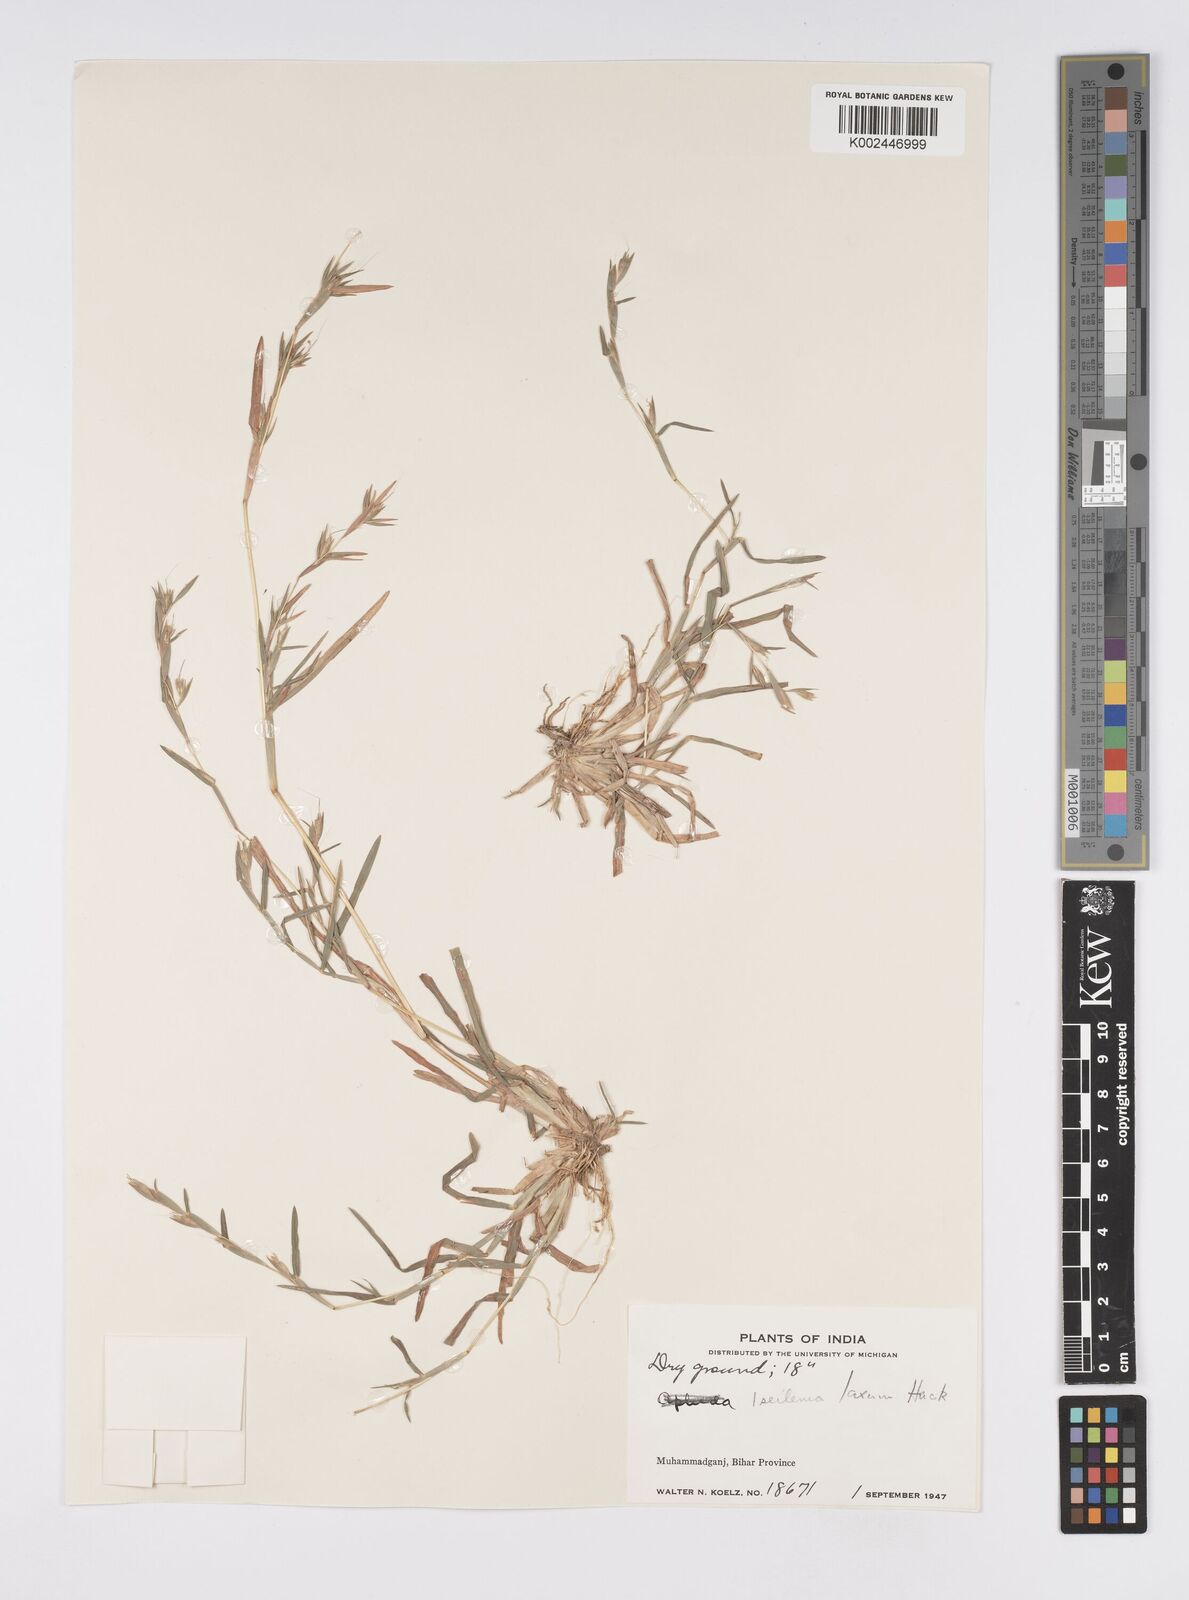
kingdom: Plantae
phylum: Tracheophyta
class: Liliopsida
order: Poales
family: Poaceae
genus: Iseilema
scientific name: Iseilema prostratum
